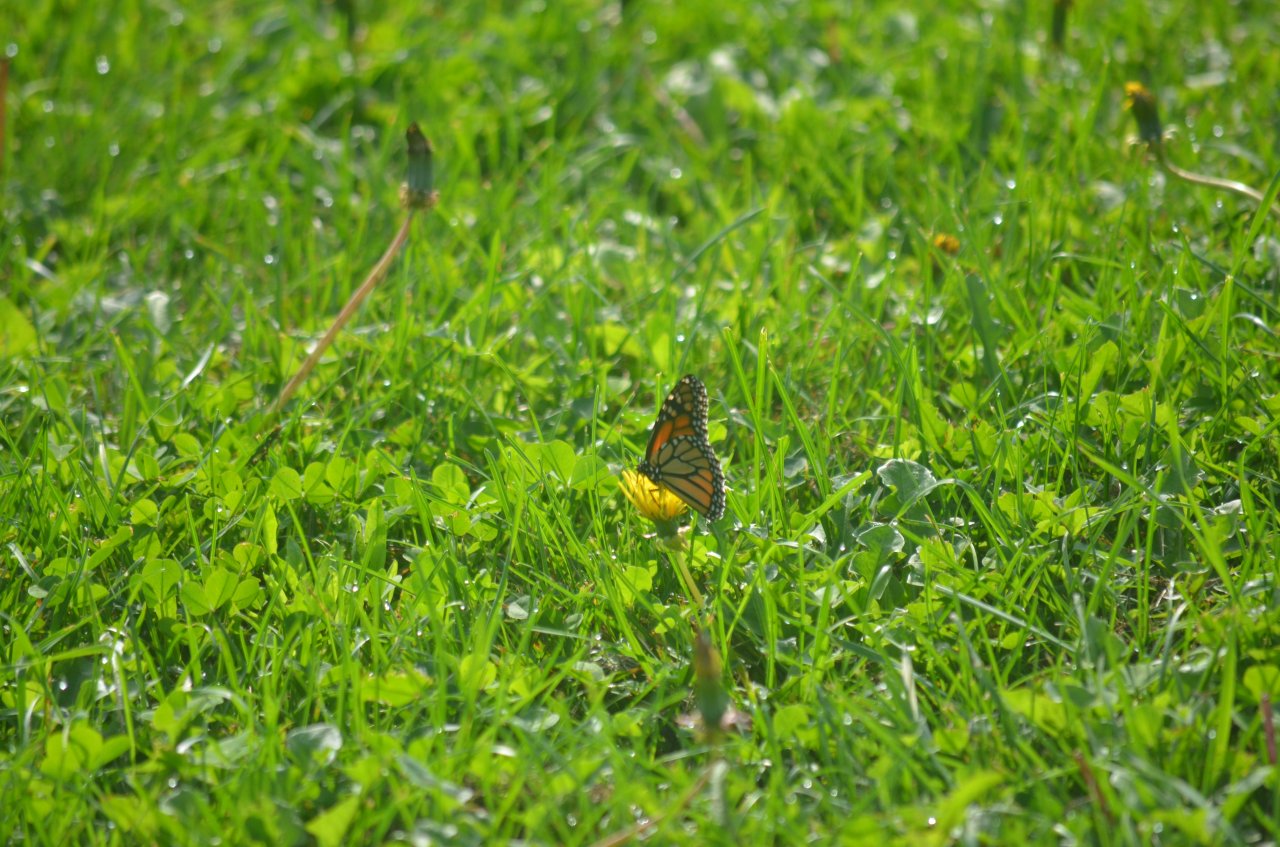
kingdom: Animalia
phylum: Arthropoda
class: Insecta
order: Lepidoptera
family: Nymphalidae
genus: Danaus
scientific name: Danaus plexippus
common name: Monarch
